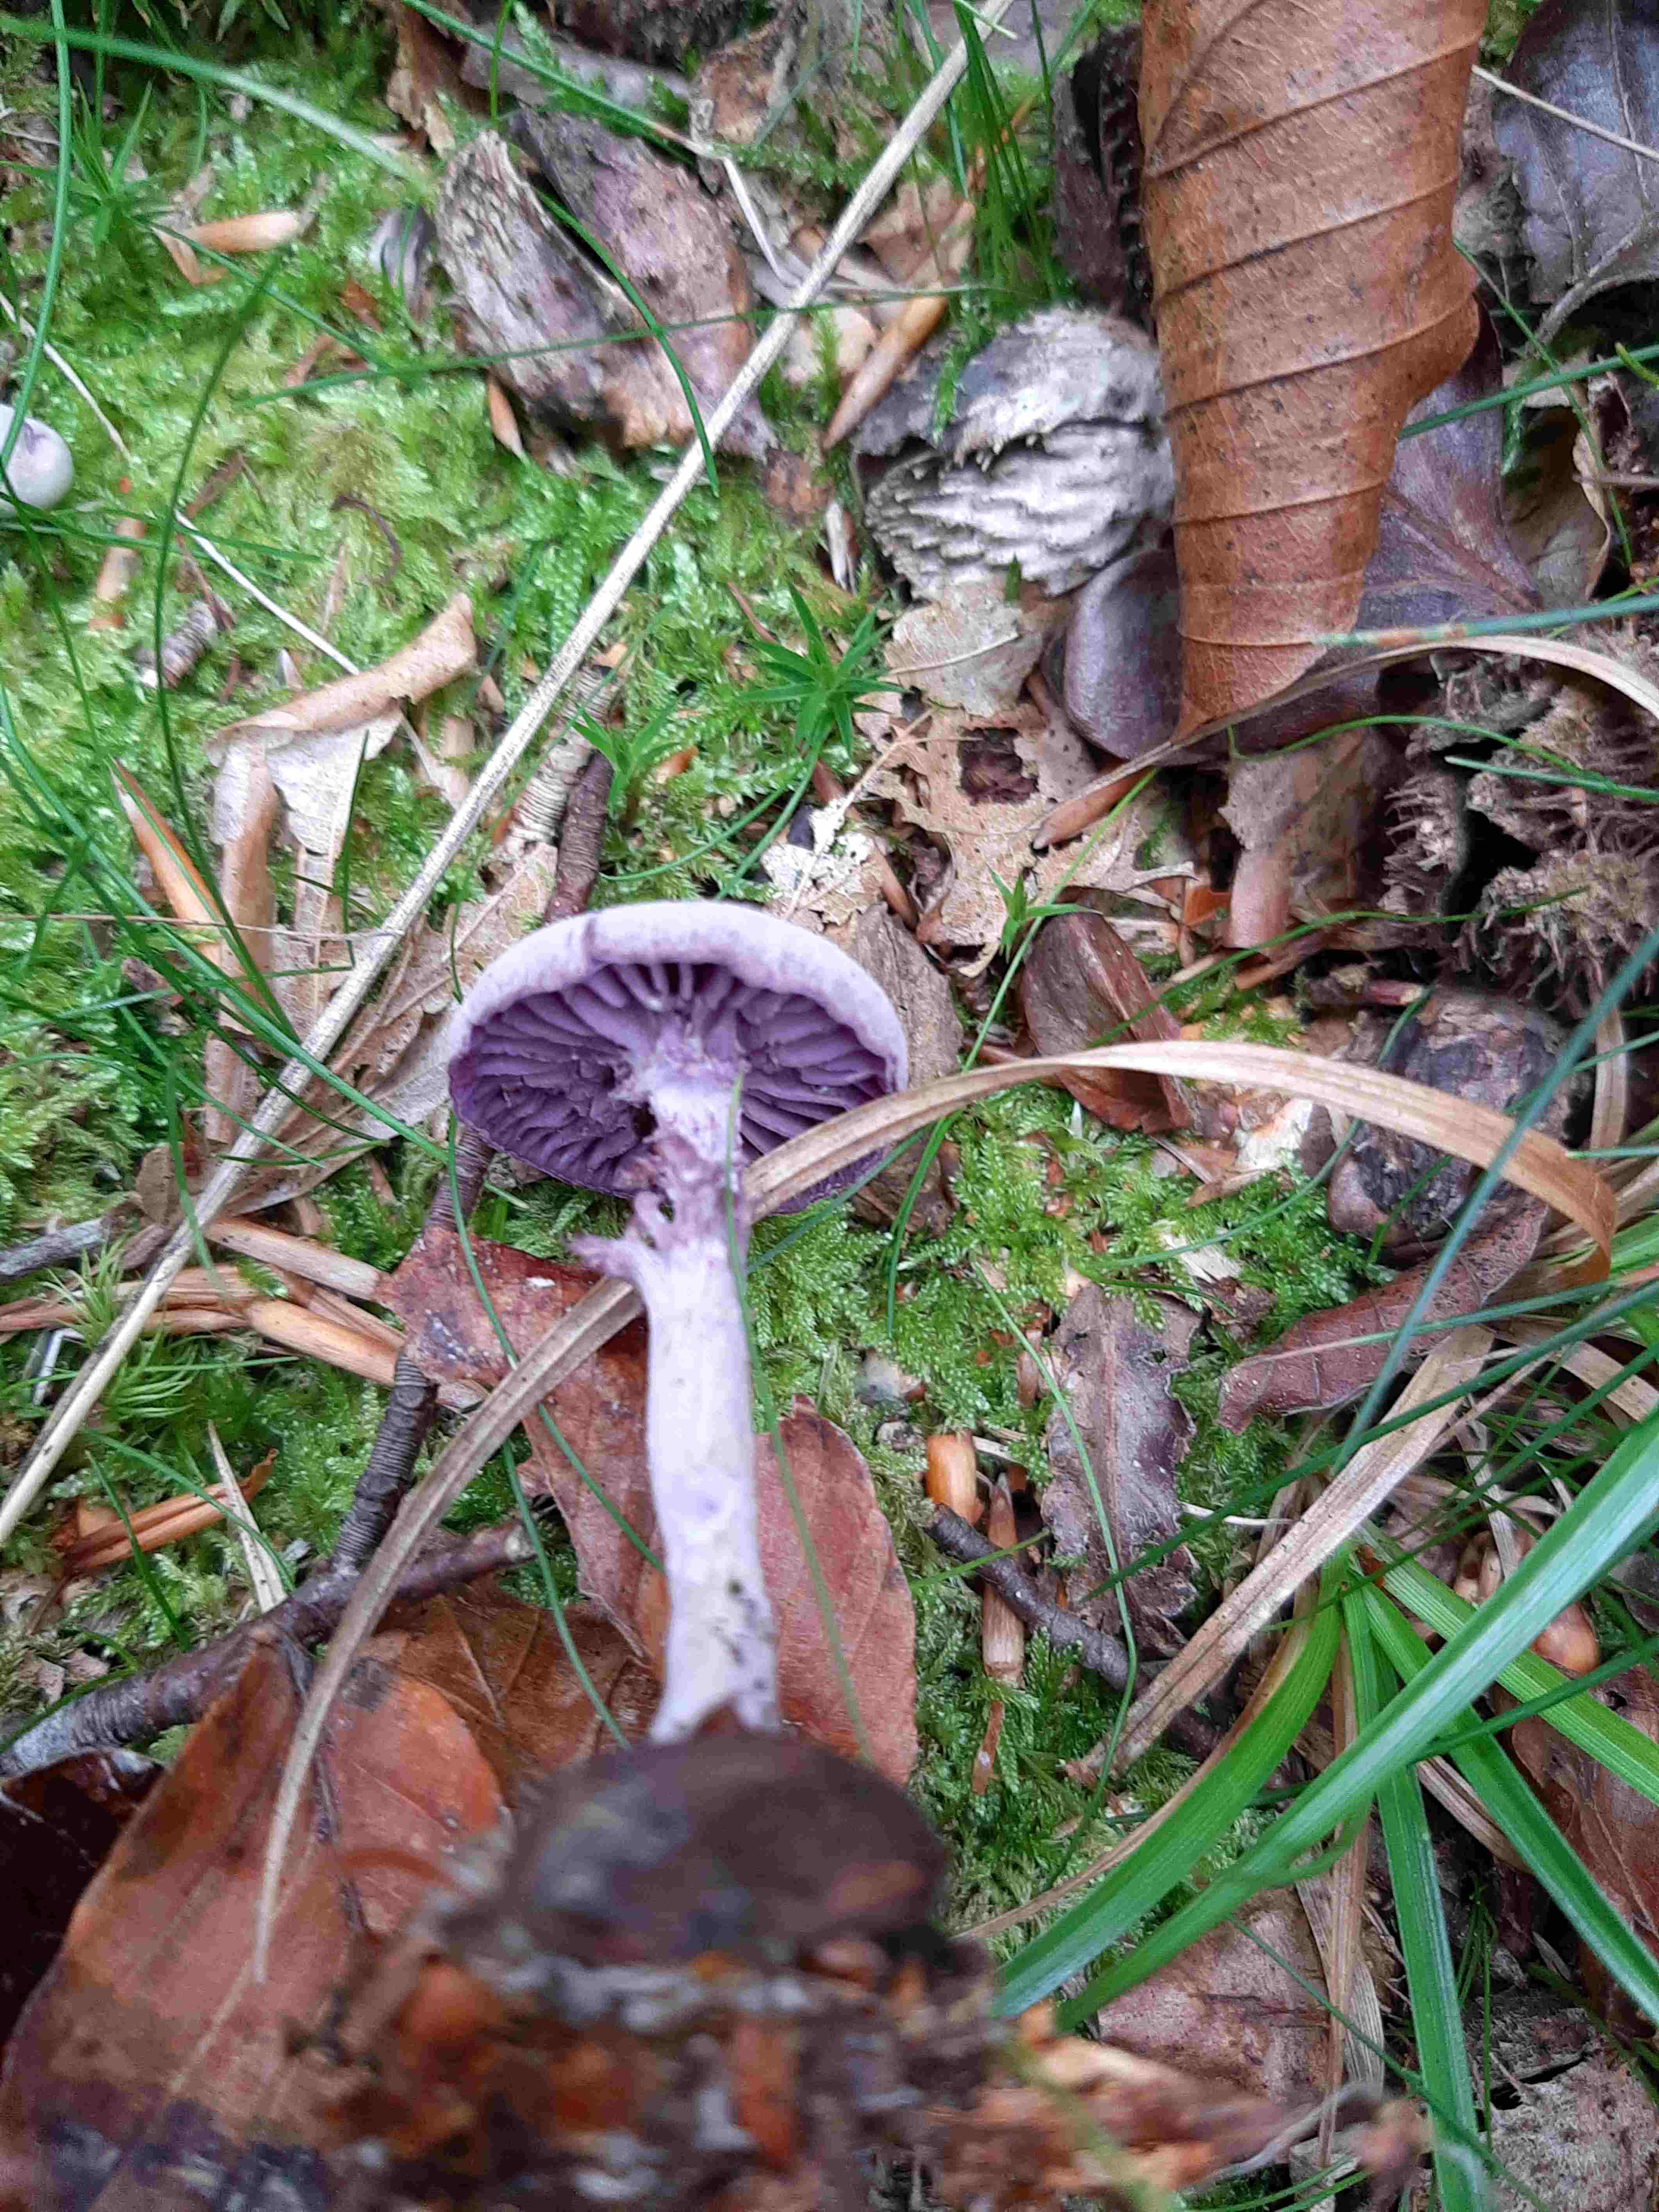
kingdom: Fungi
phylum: Basidiomycota
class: Agaricomycetes
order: Agaricales
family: Hydnangiaceae
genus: Laccaria
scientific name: Laccaria amethystina
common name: violet ametysthat
